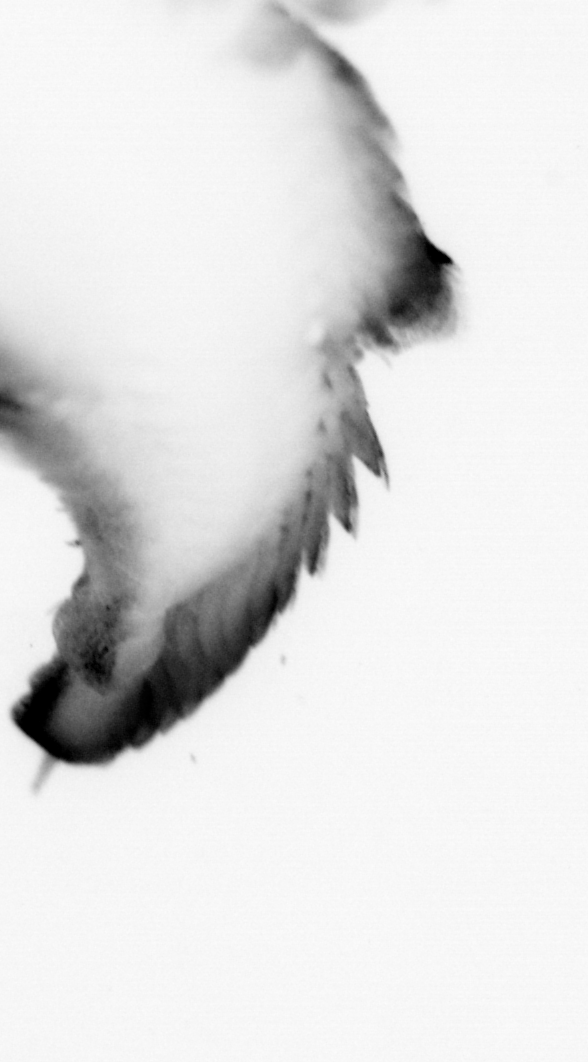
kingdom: Animalia
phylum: Annelida
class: Polychaeta
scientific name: Polychaeta
